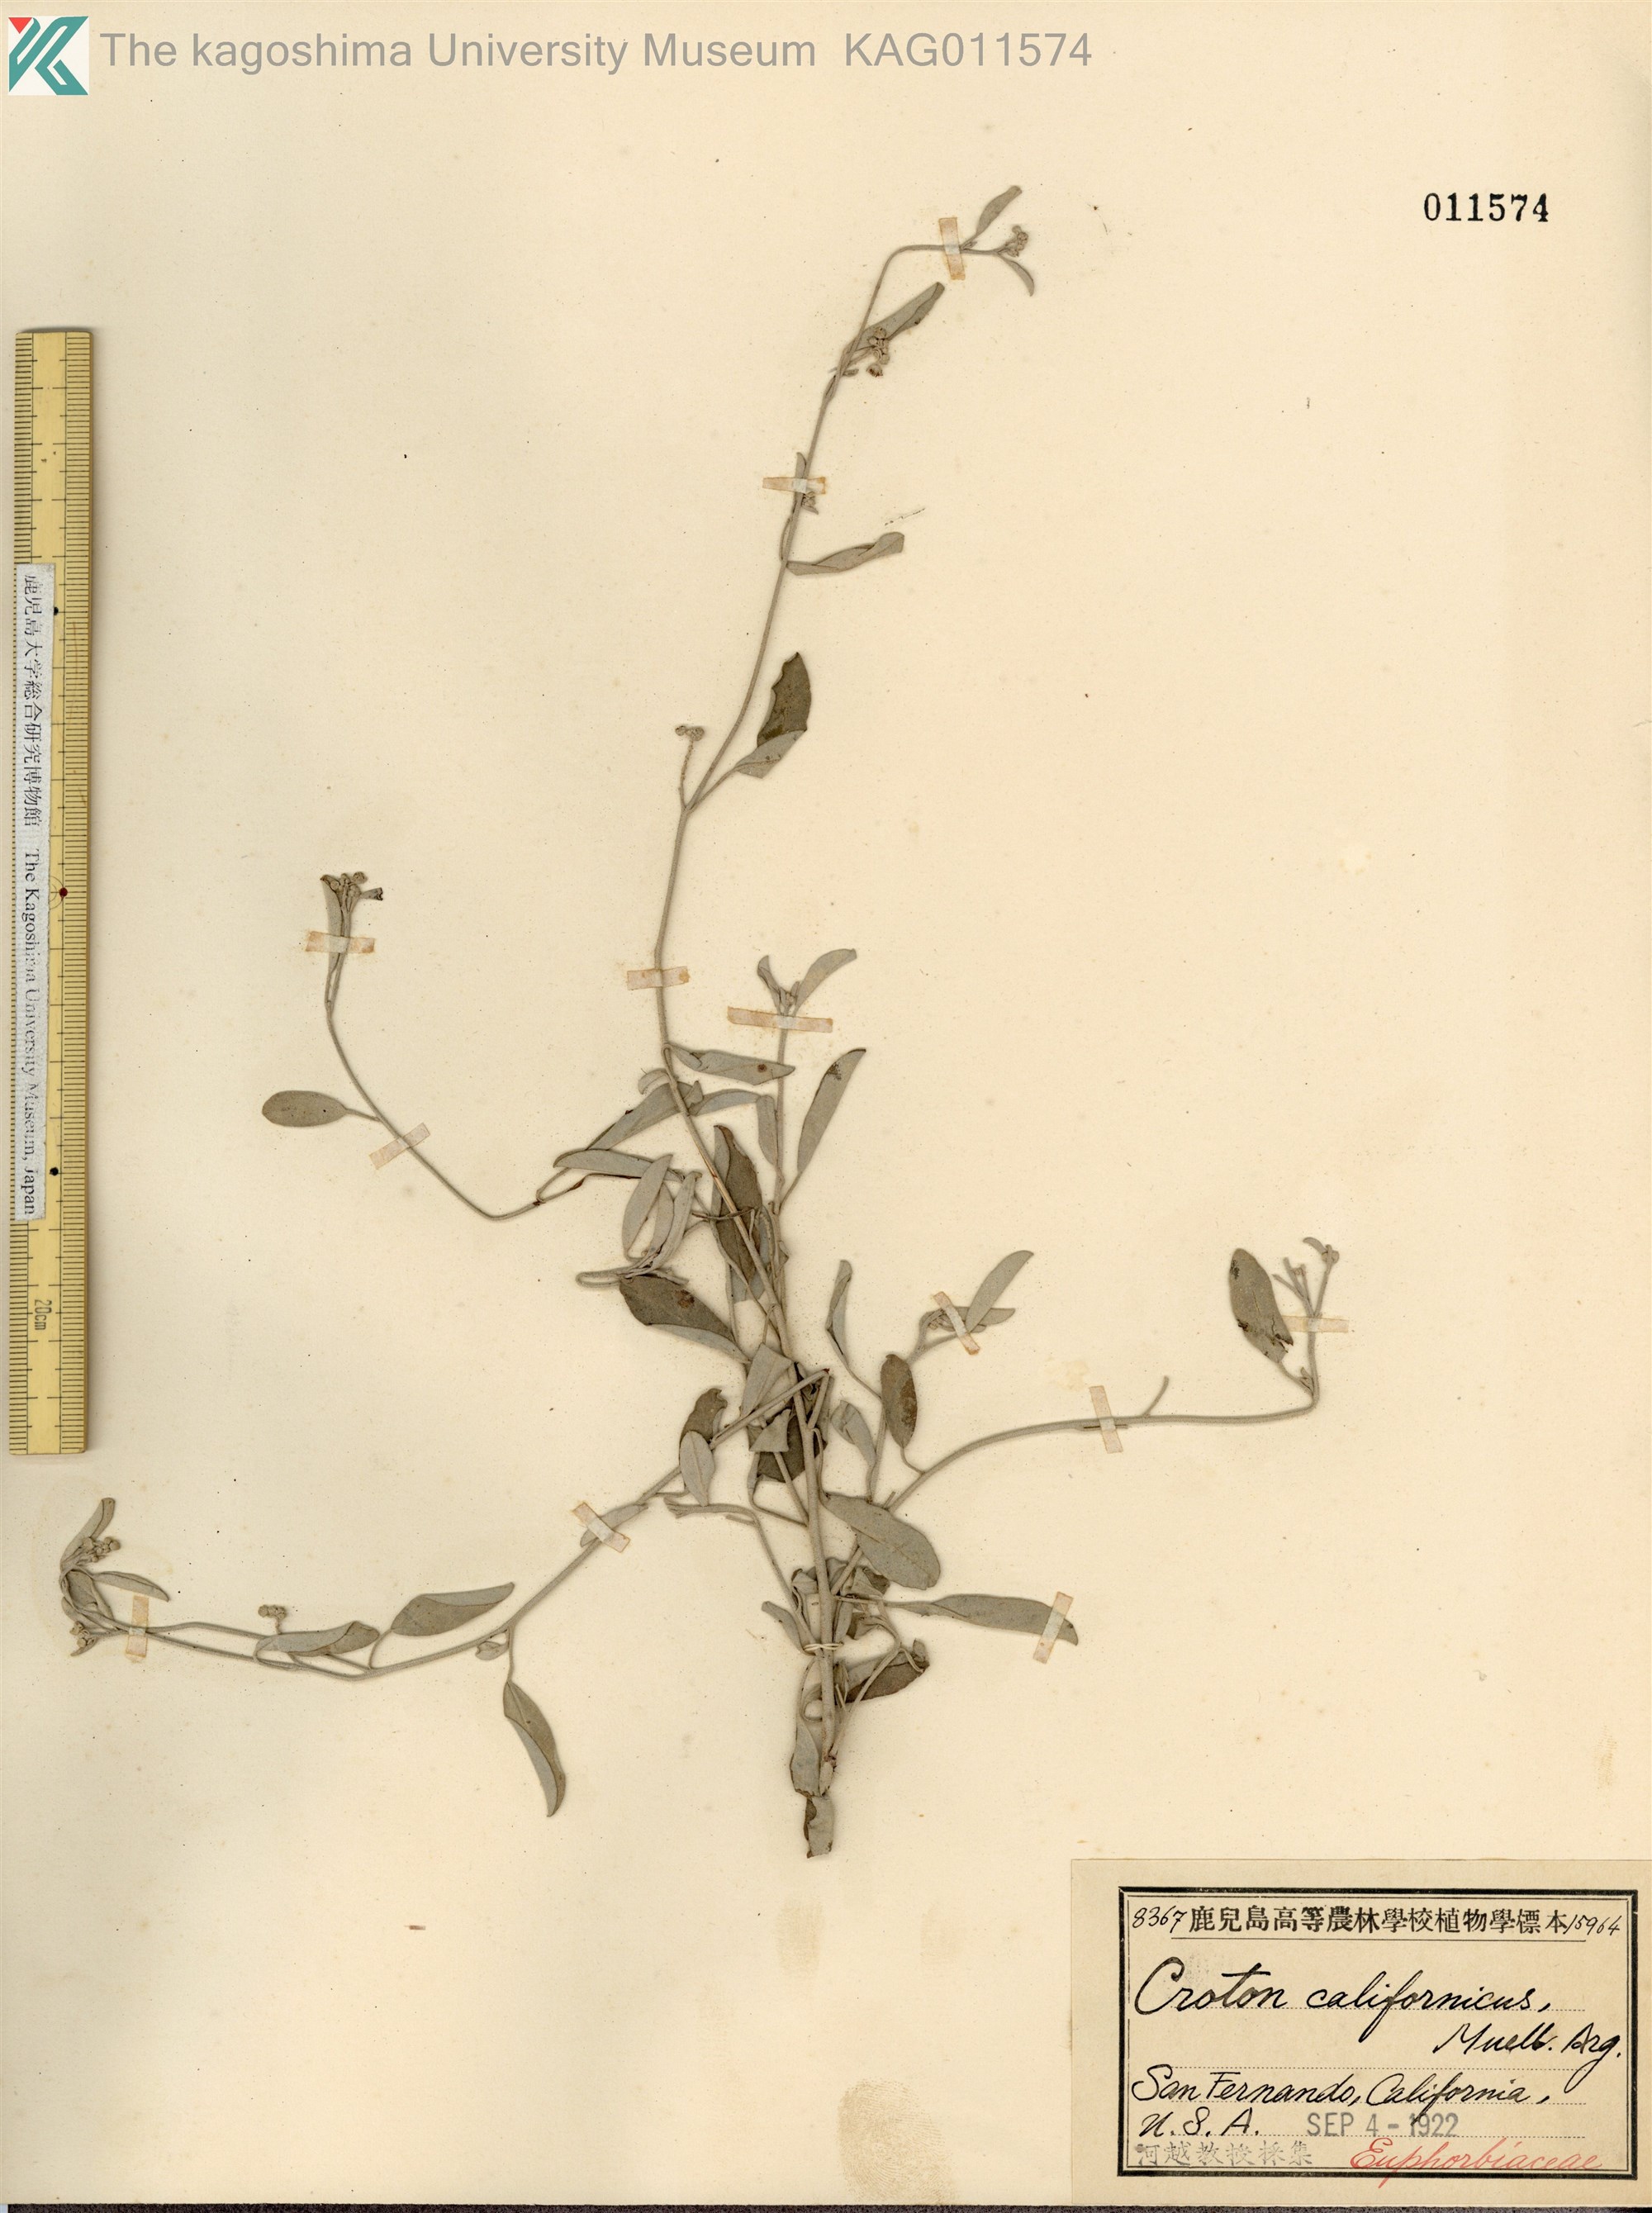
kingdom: Plantae
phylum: Tracheophyta
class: Magnoliopsida
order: Malpighiales
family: Euphorbiaceae
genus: Croton
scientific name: Croton californicus
